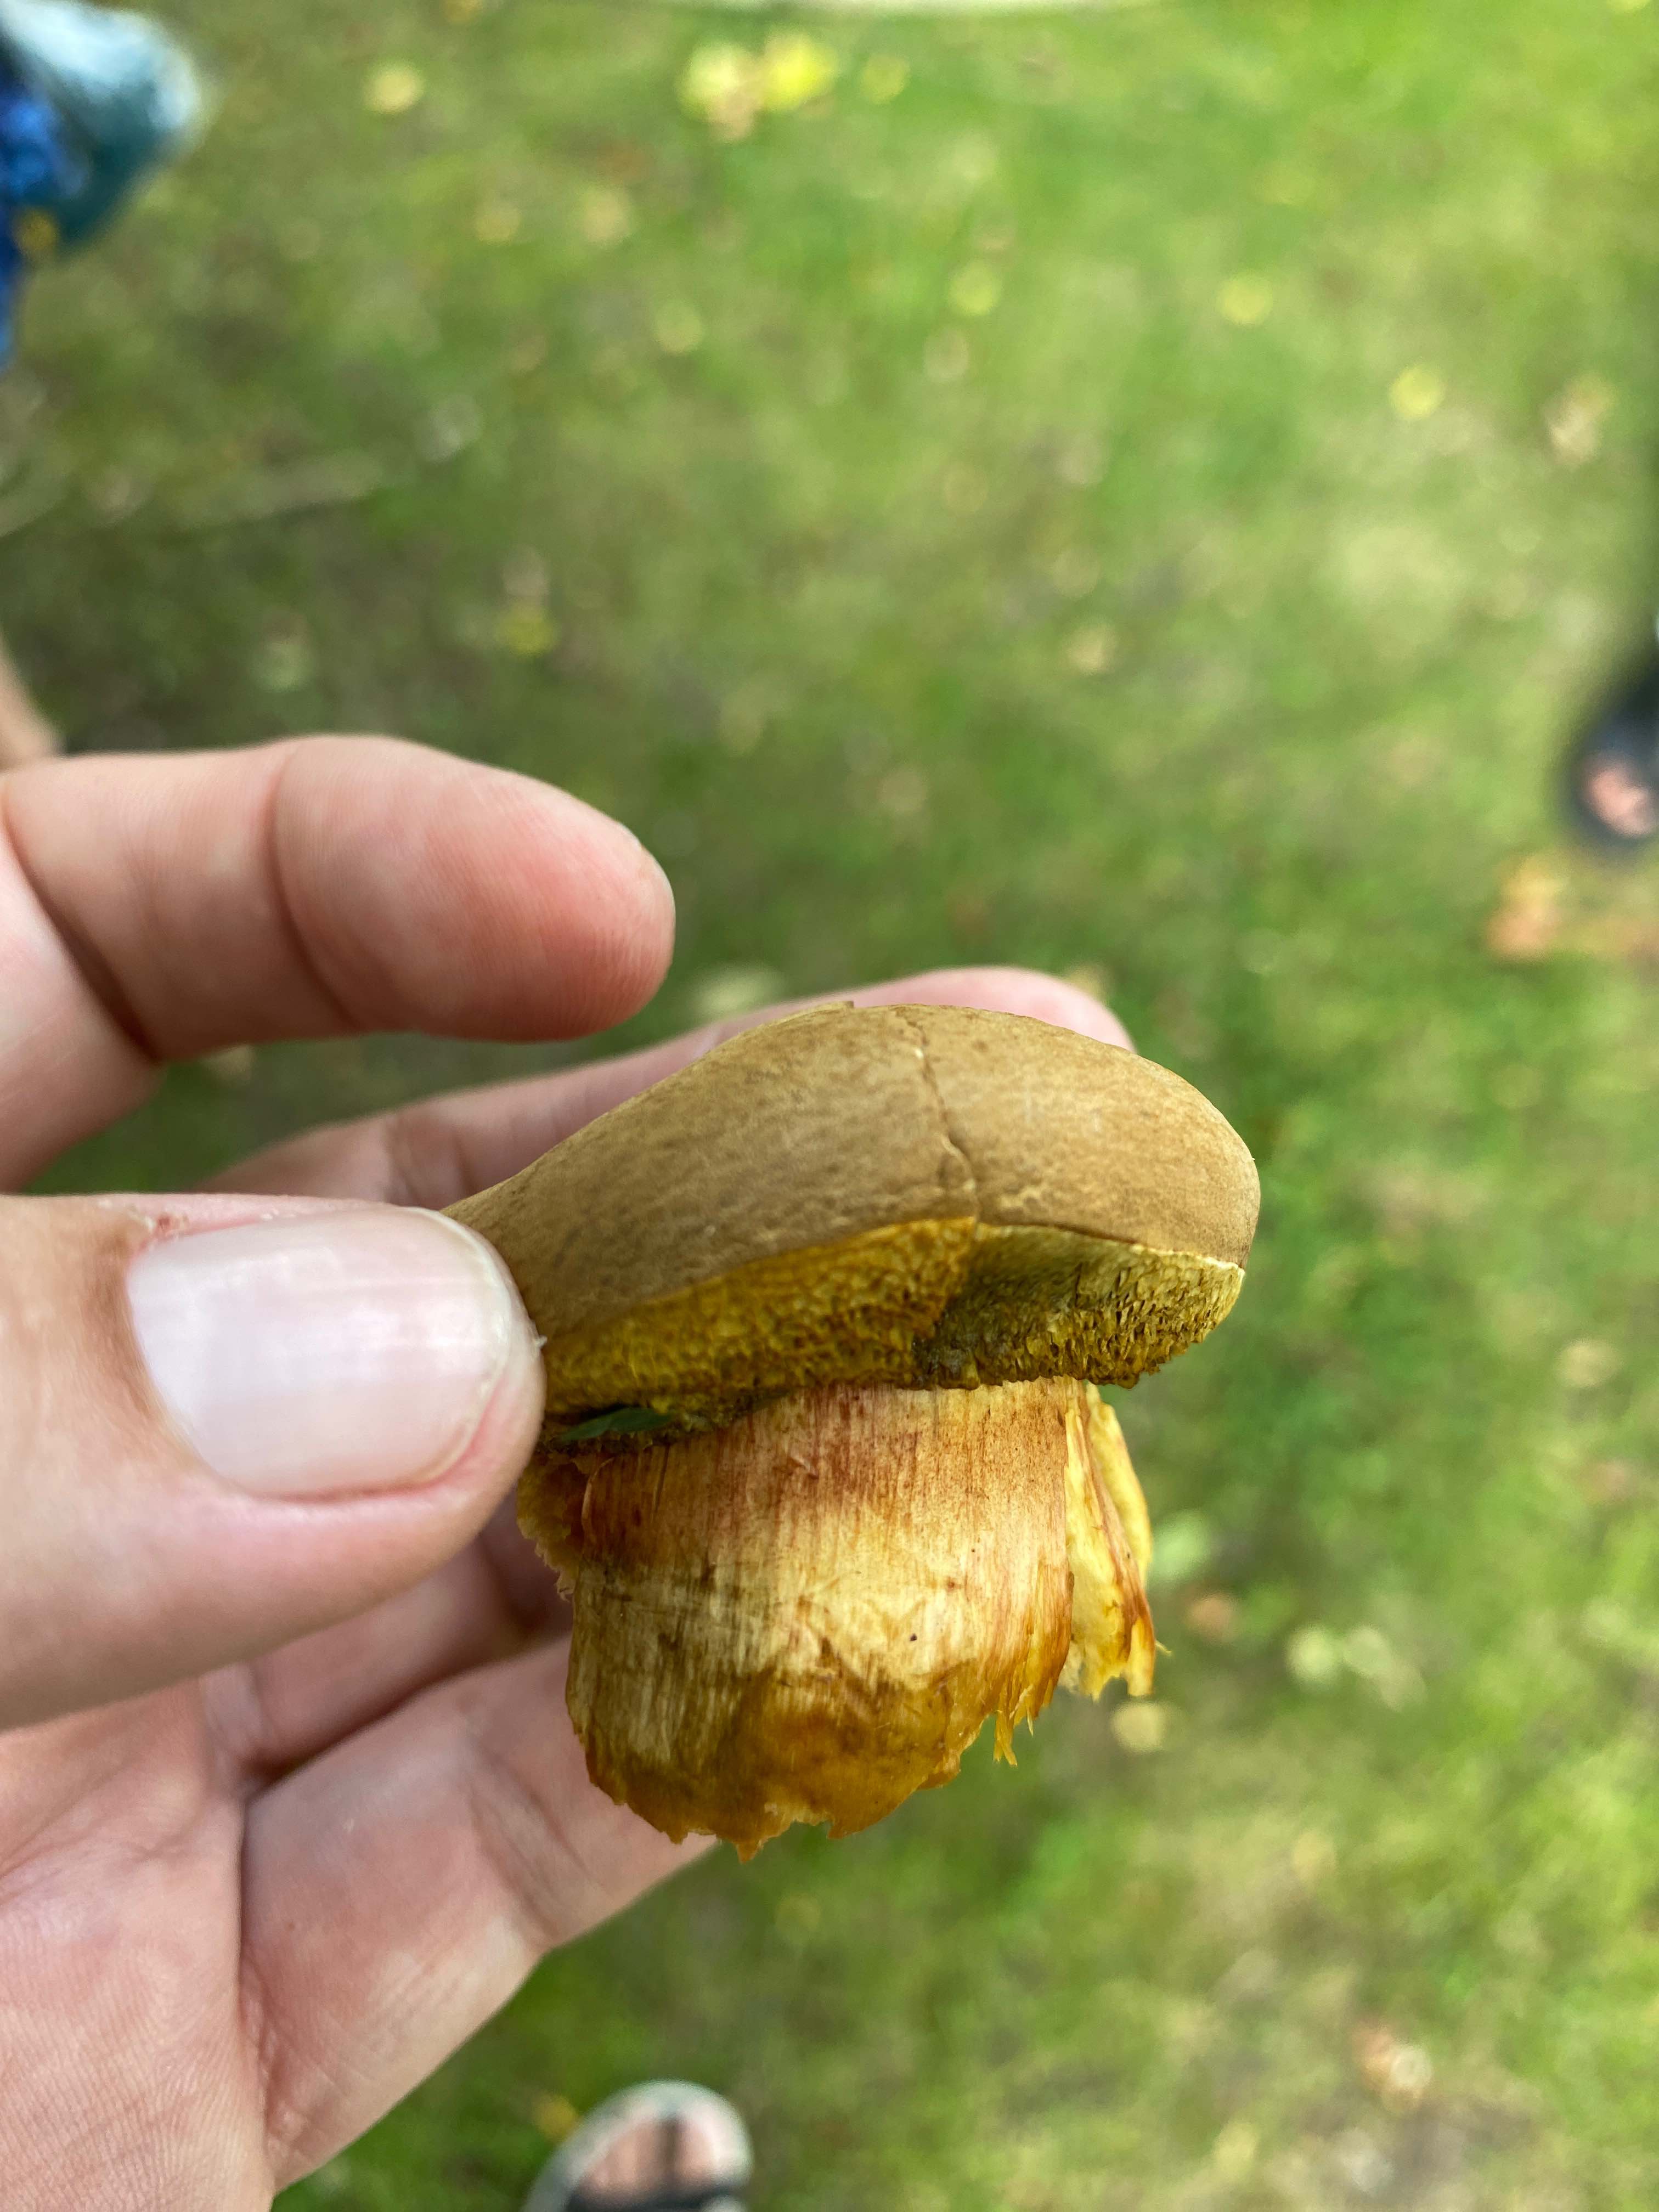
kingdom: Fungi
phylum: Basidiomycota
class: Agaricomycetes
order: Boletales
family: Boletaceae
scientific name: Boletaceae
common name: rørhatfamilien
